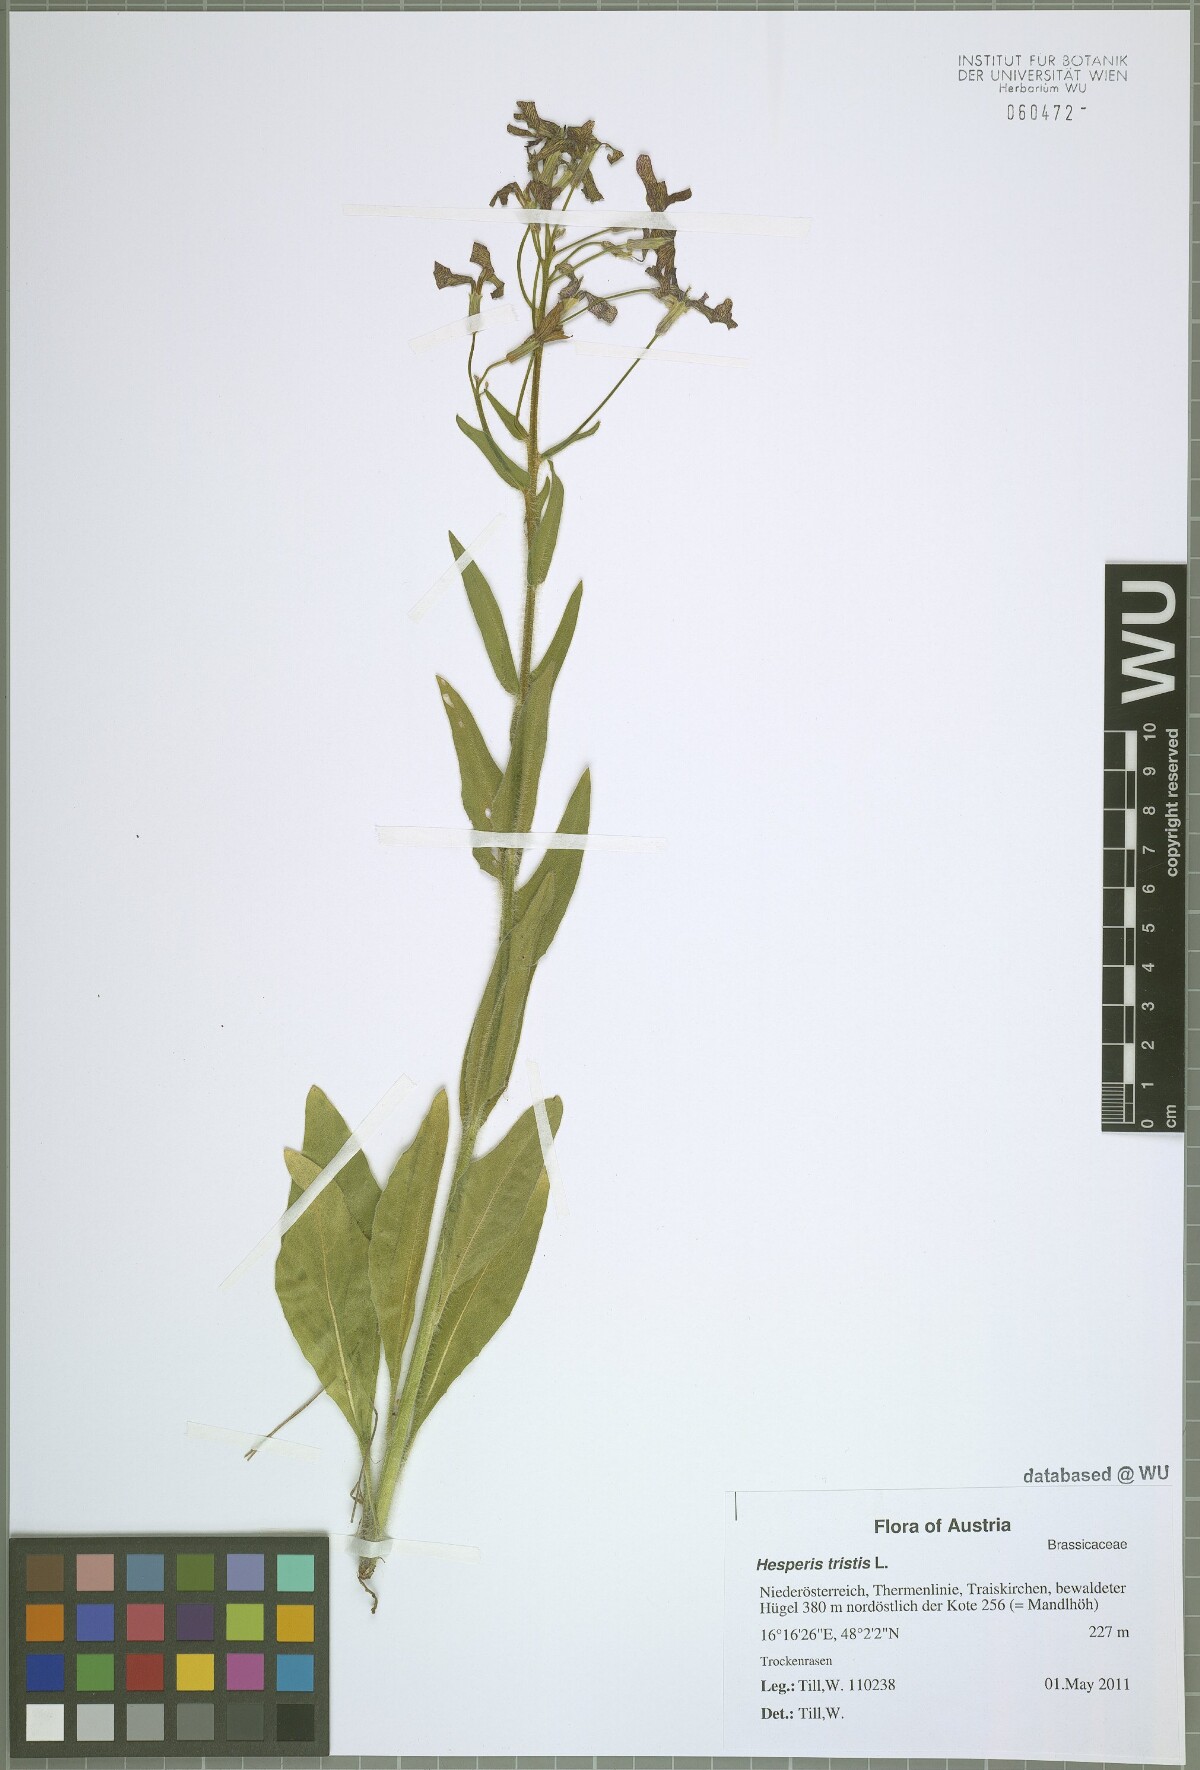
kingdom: Plantae
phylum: Tracheophyta
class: Magnoliopsida
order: Brassicales
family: Brassicaceae
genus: Hesperis
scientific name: Hesperis tristis
